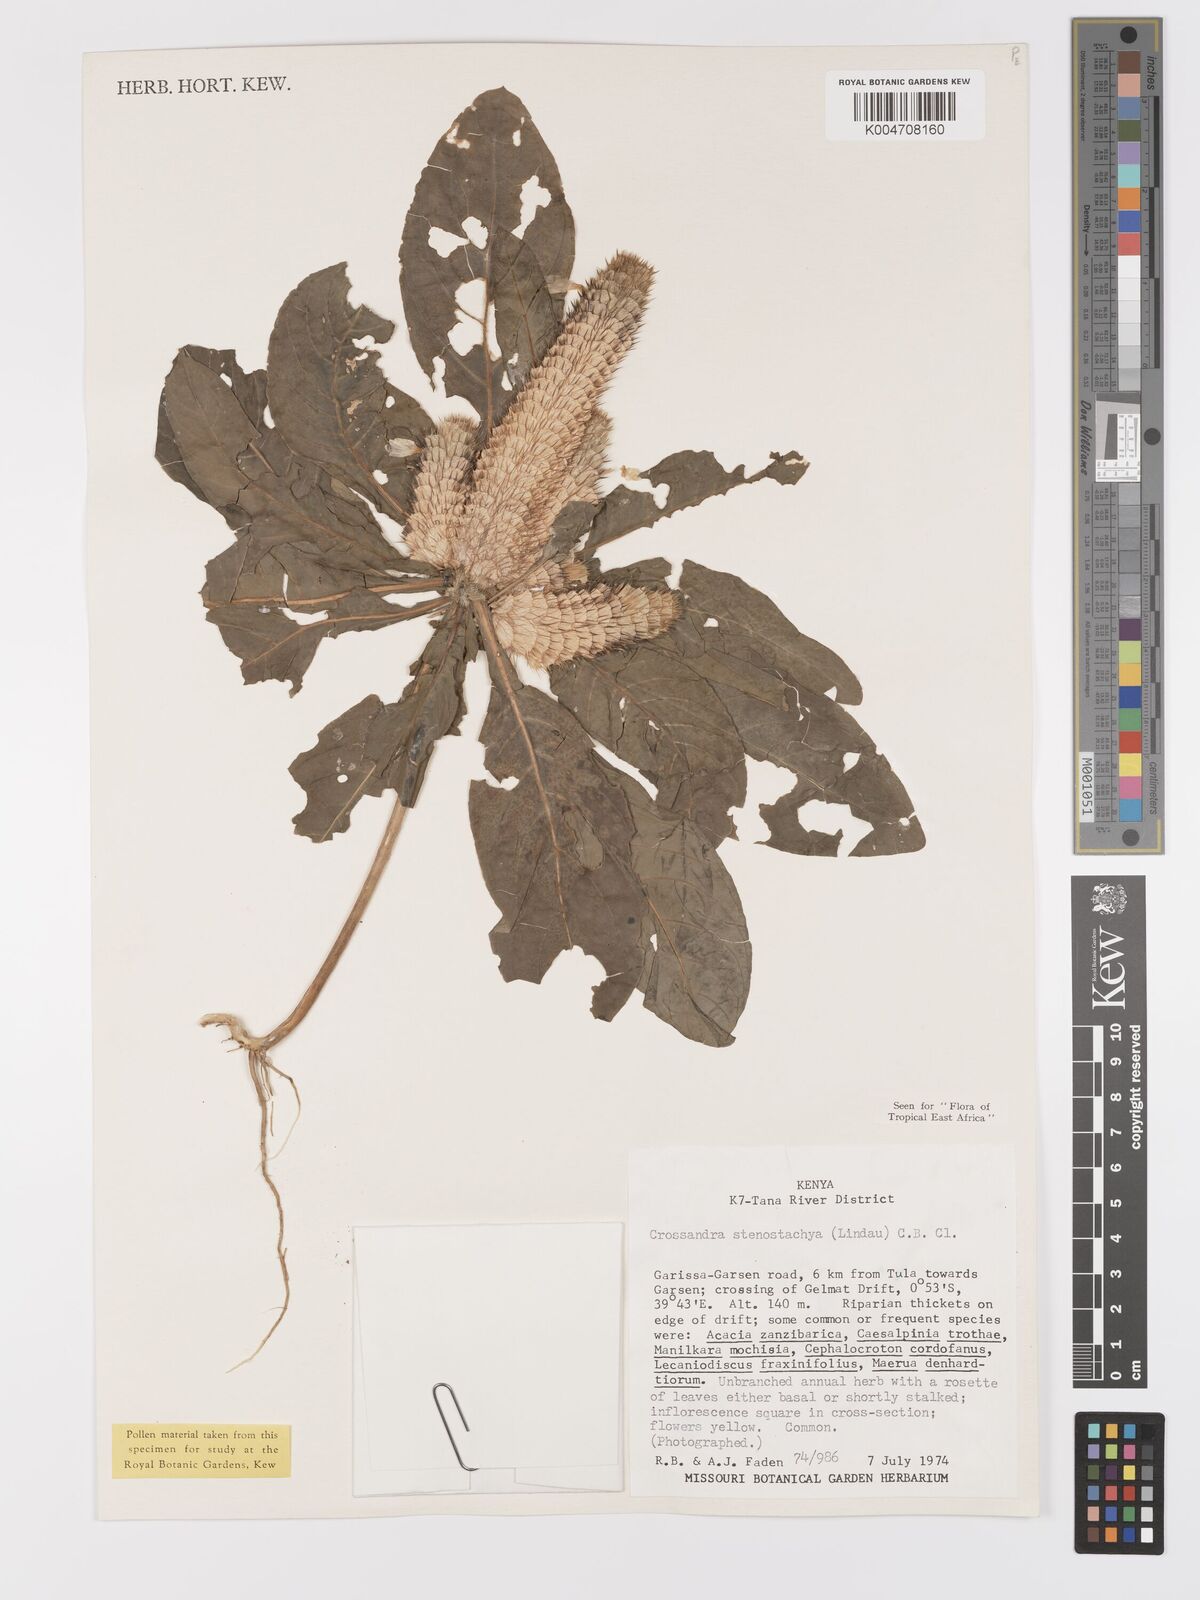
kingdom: Plantae
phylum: Tracheophyta
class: Magnoliopsida
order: Lamiales
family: Acanthaceae
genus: Crossandra
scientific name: Crossandra stenostachya
